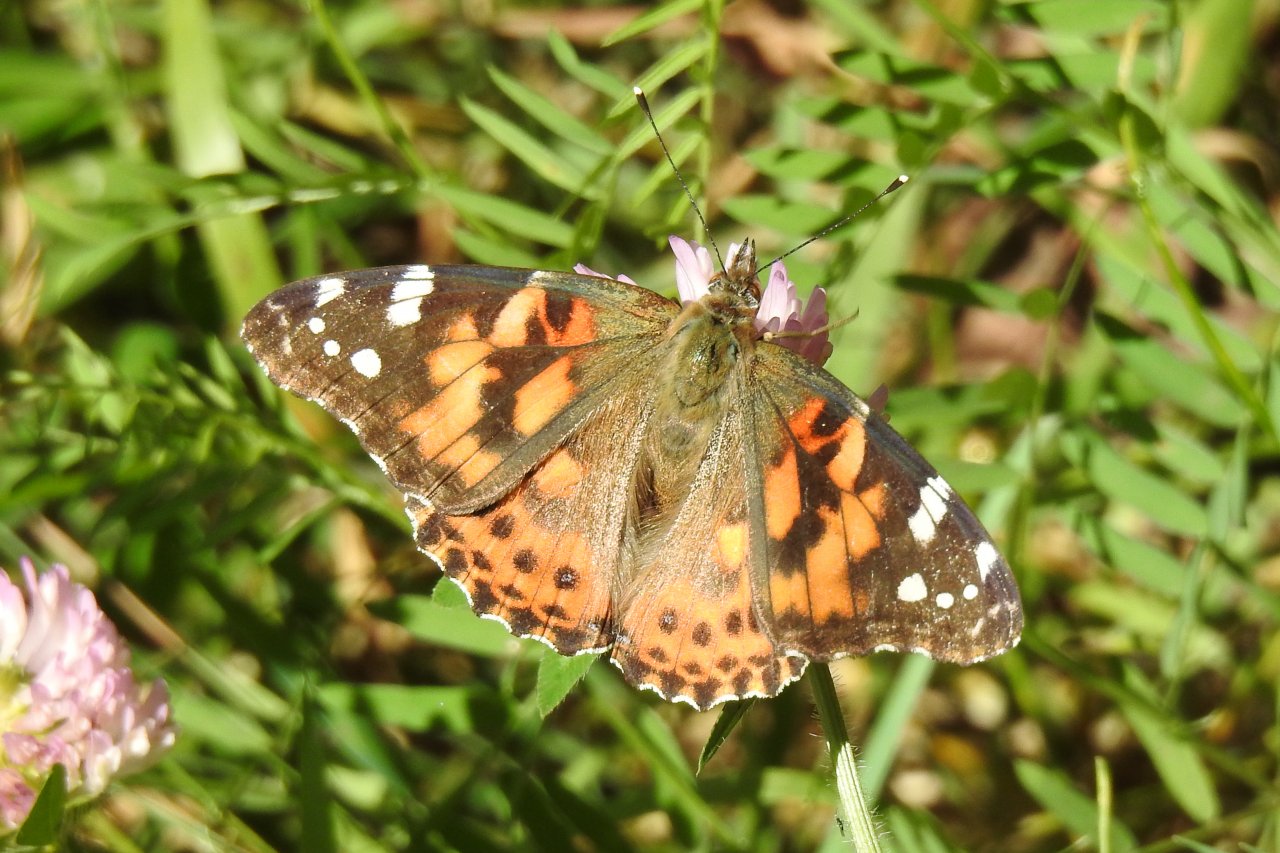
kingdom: Animalia
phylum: Arthropoda
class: Insecta
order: Lepidoptera
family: Nymphalidae
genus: Vanessa
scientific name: Vanessa cardui
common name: Painted Lady
